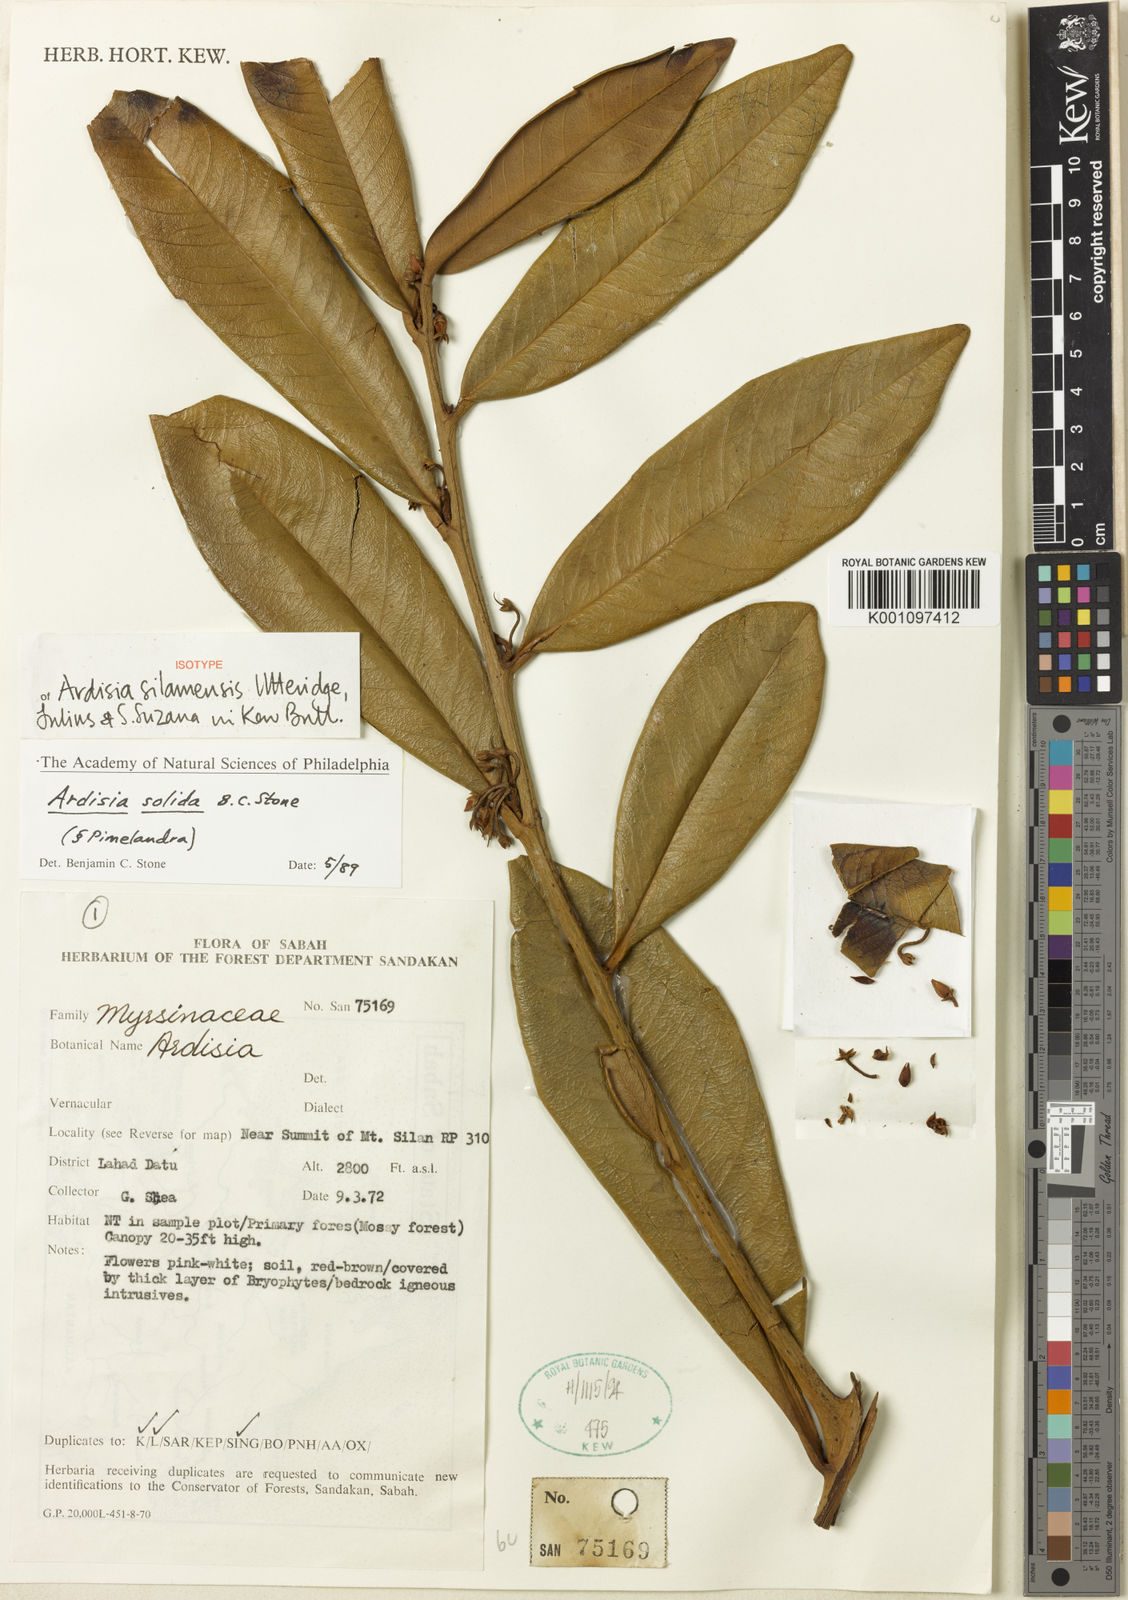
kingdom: Plantae
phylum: Tracheophyta
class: Magnoliopsida
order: Ericales
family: Primulaceae
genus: Ardisia
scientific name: Ardisia silamensis
